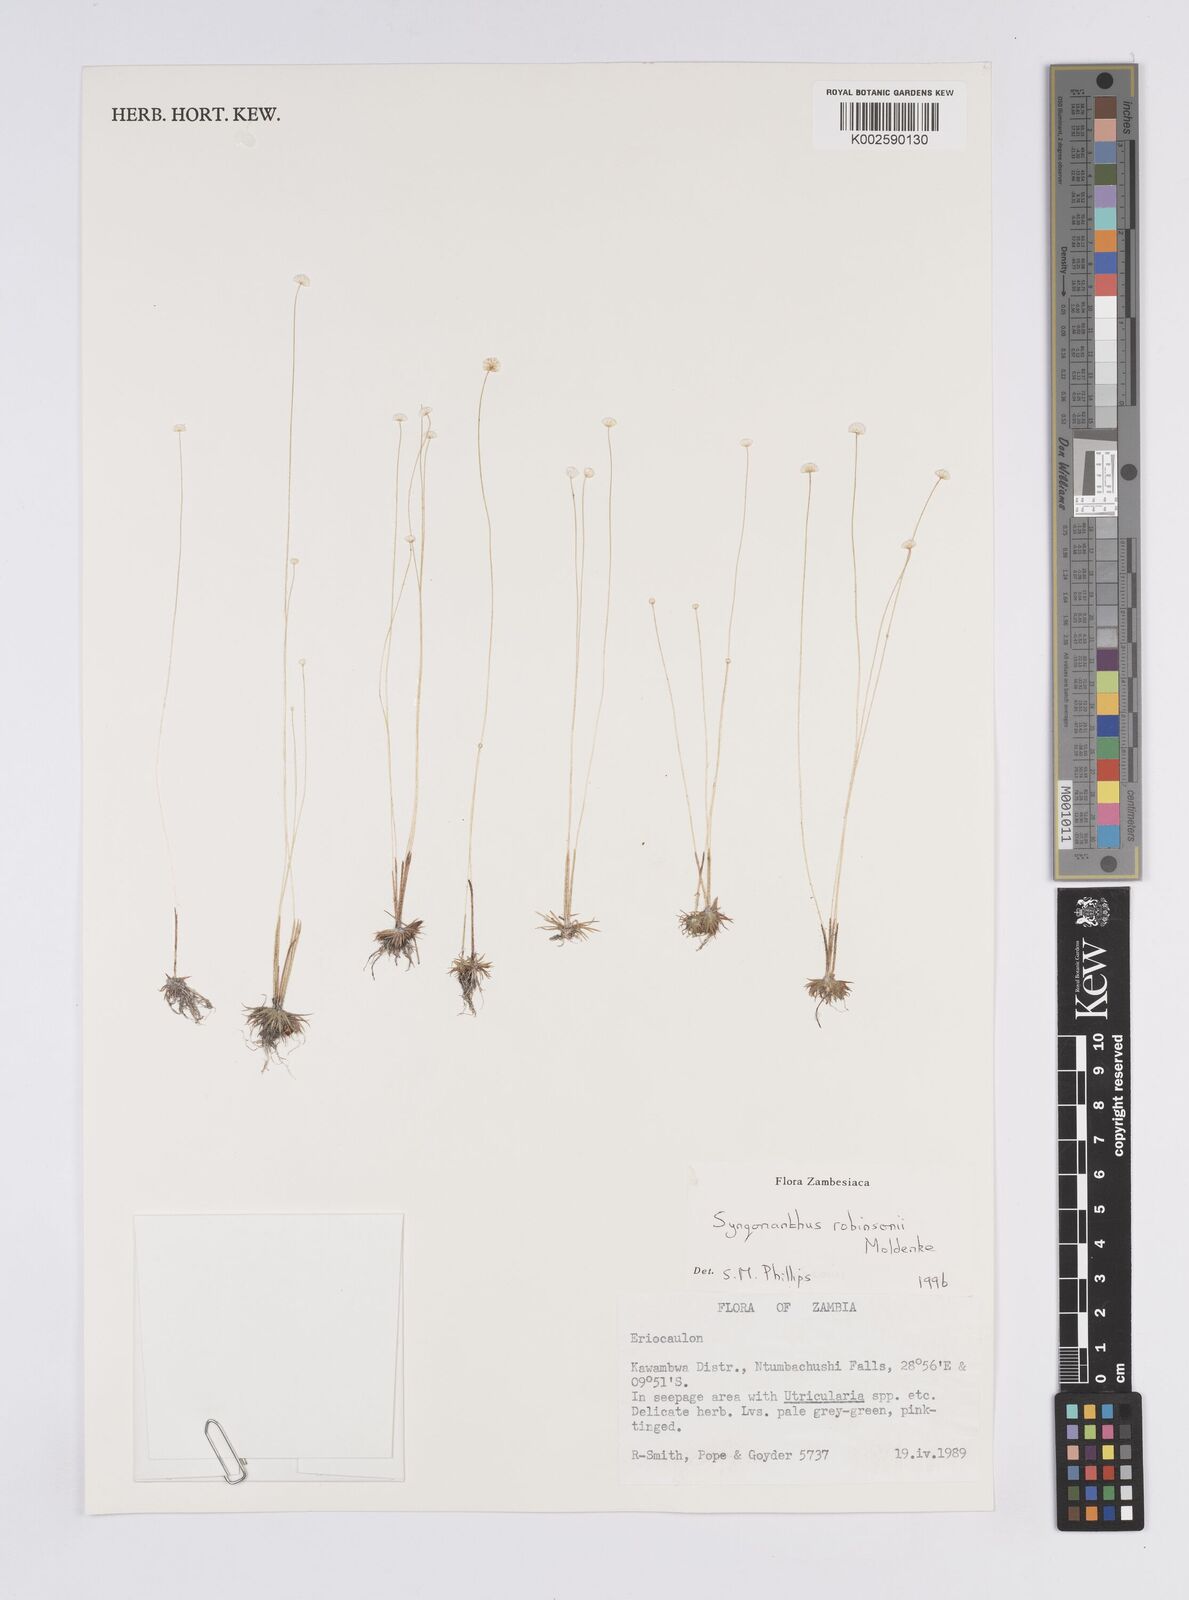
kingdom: Plantae
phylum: Tracheophyta
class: Liliopsida
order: Poales
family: Eriocaulaceae
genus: Syngonanthus
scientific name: Syngonanthus robinsonii
